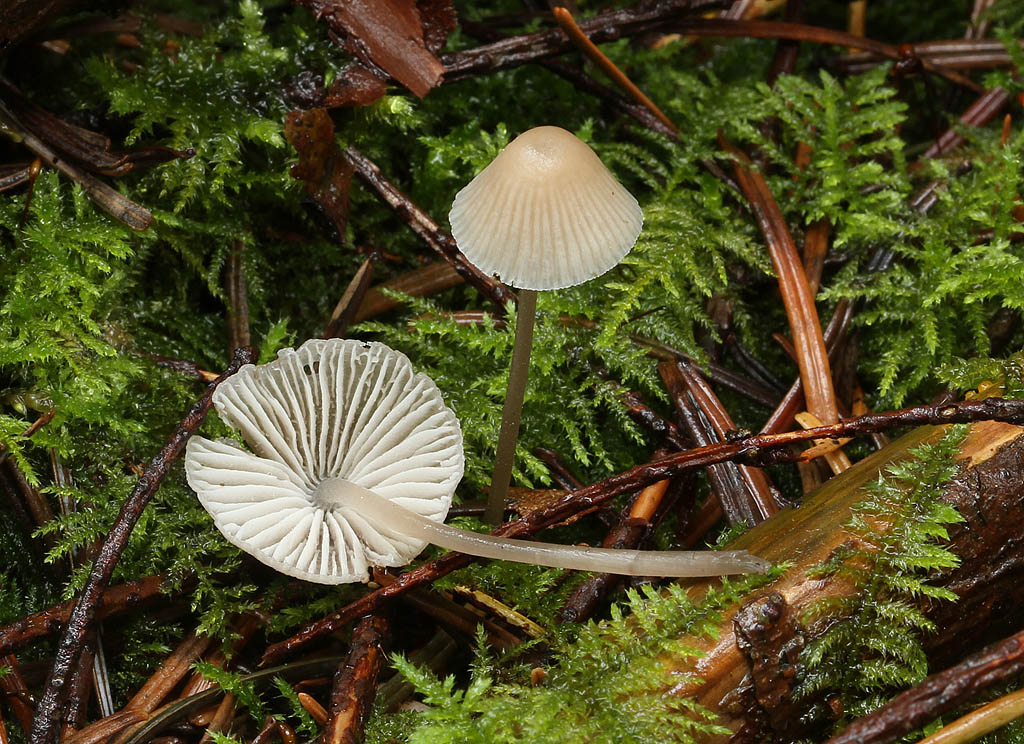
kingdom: Fungi
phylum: Basidiomycota
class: Agaricomycetes
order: Agaricales
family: Mycenaceae
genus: Mycena
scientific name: Mycena abramsii
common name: sommer-huesvamp
